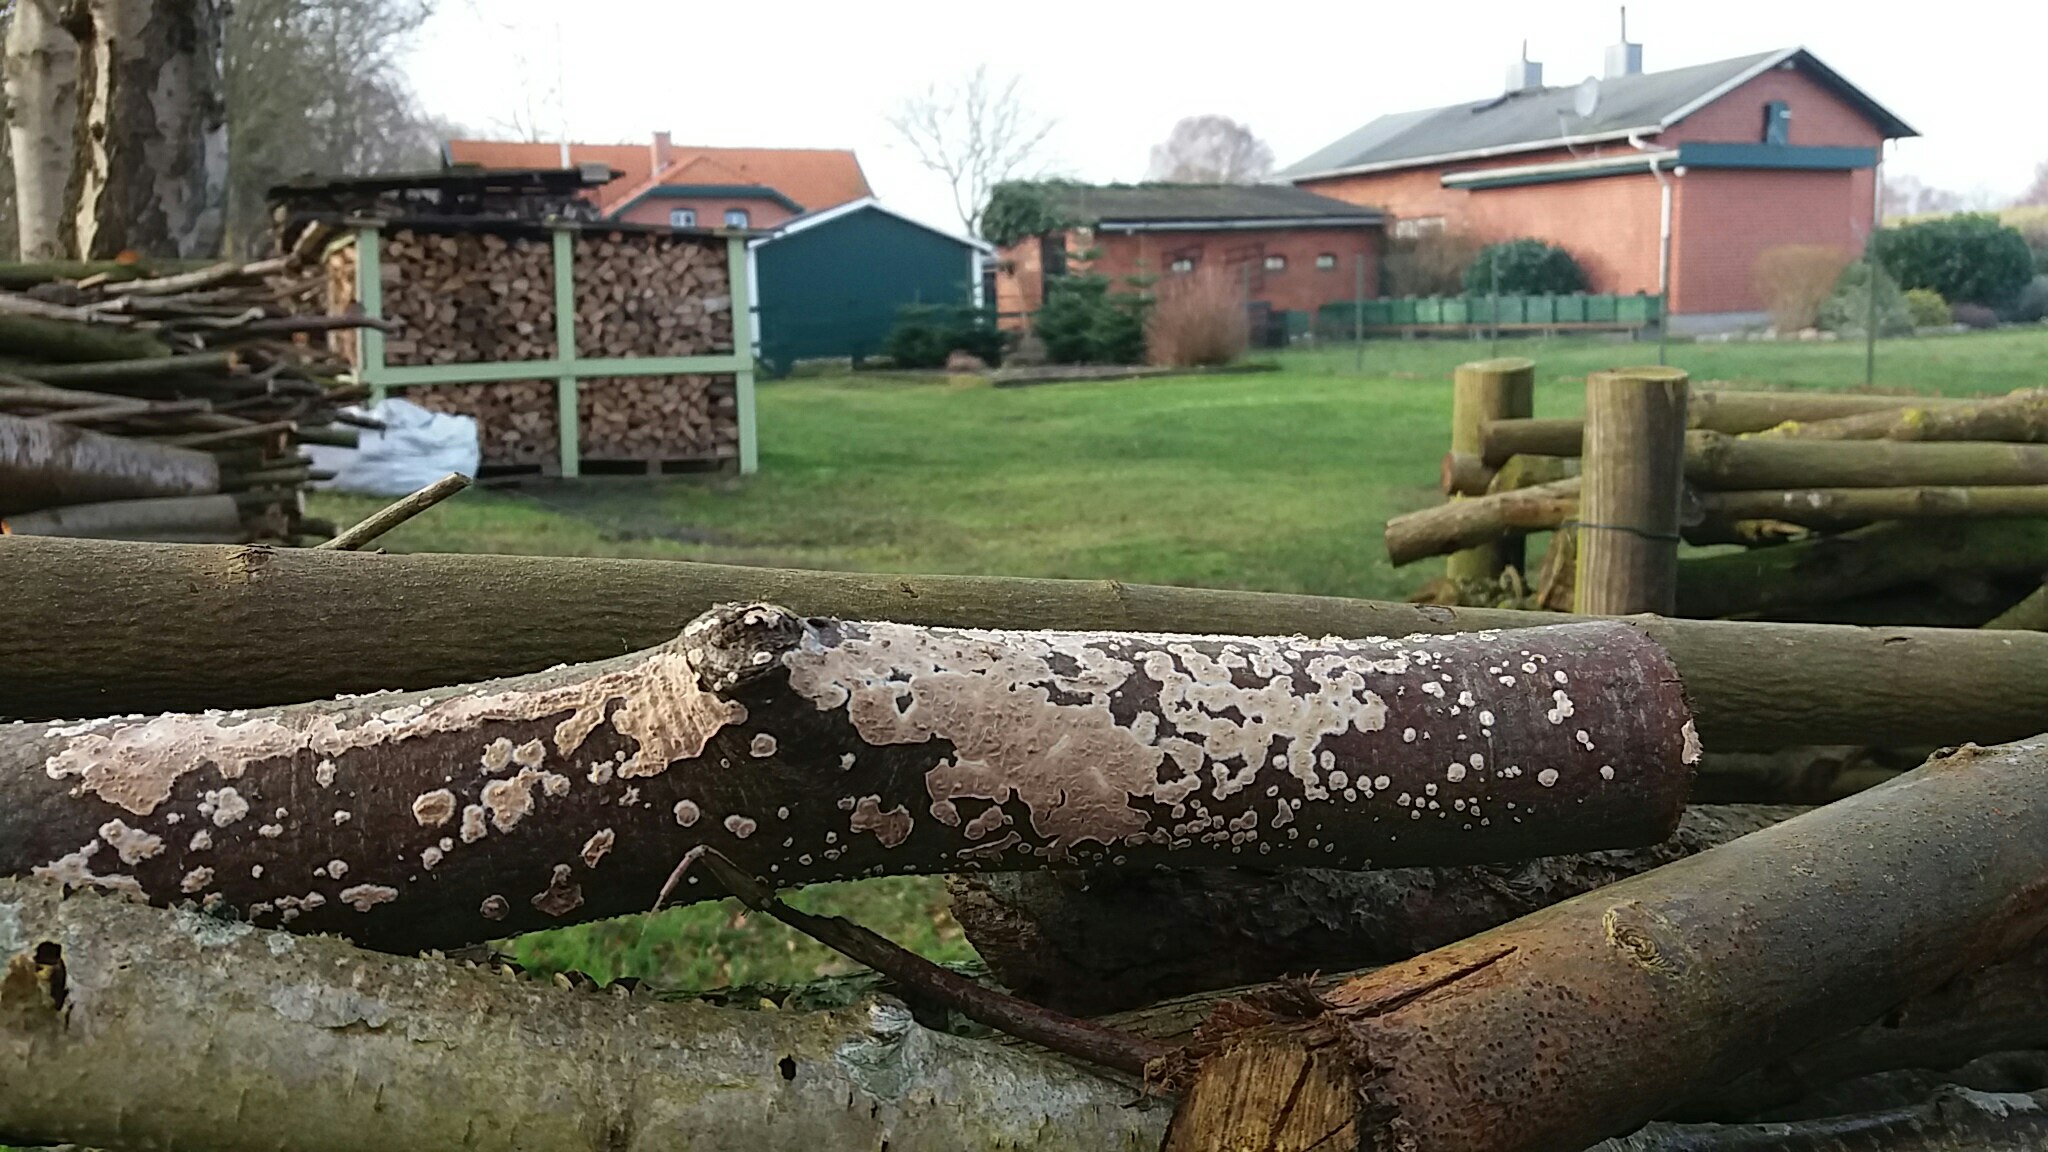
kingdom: Fungi
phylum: Basidiomycota
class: Agaricomycetes
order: Agaricales
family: Physalacriaceae
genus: Cylindrobasidium
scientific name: Cylindrobasidium evolvens
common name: sprækkehinde
